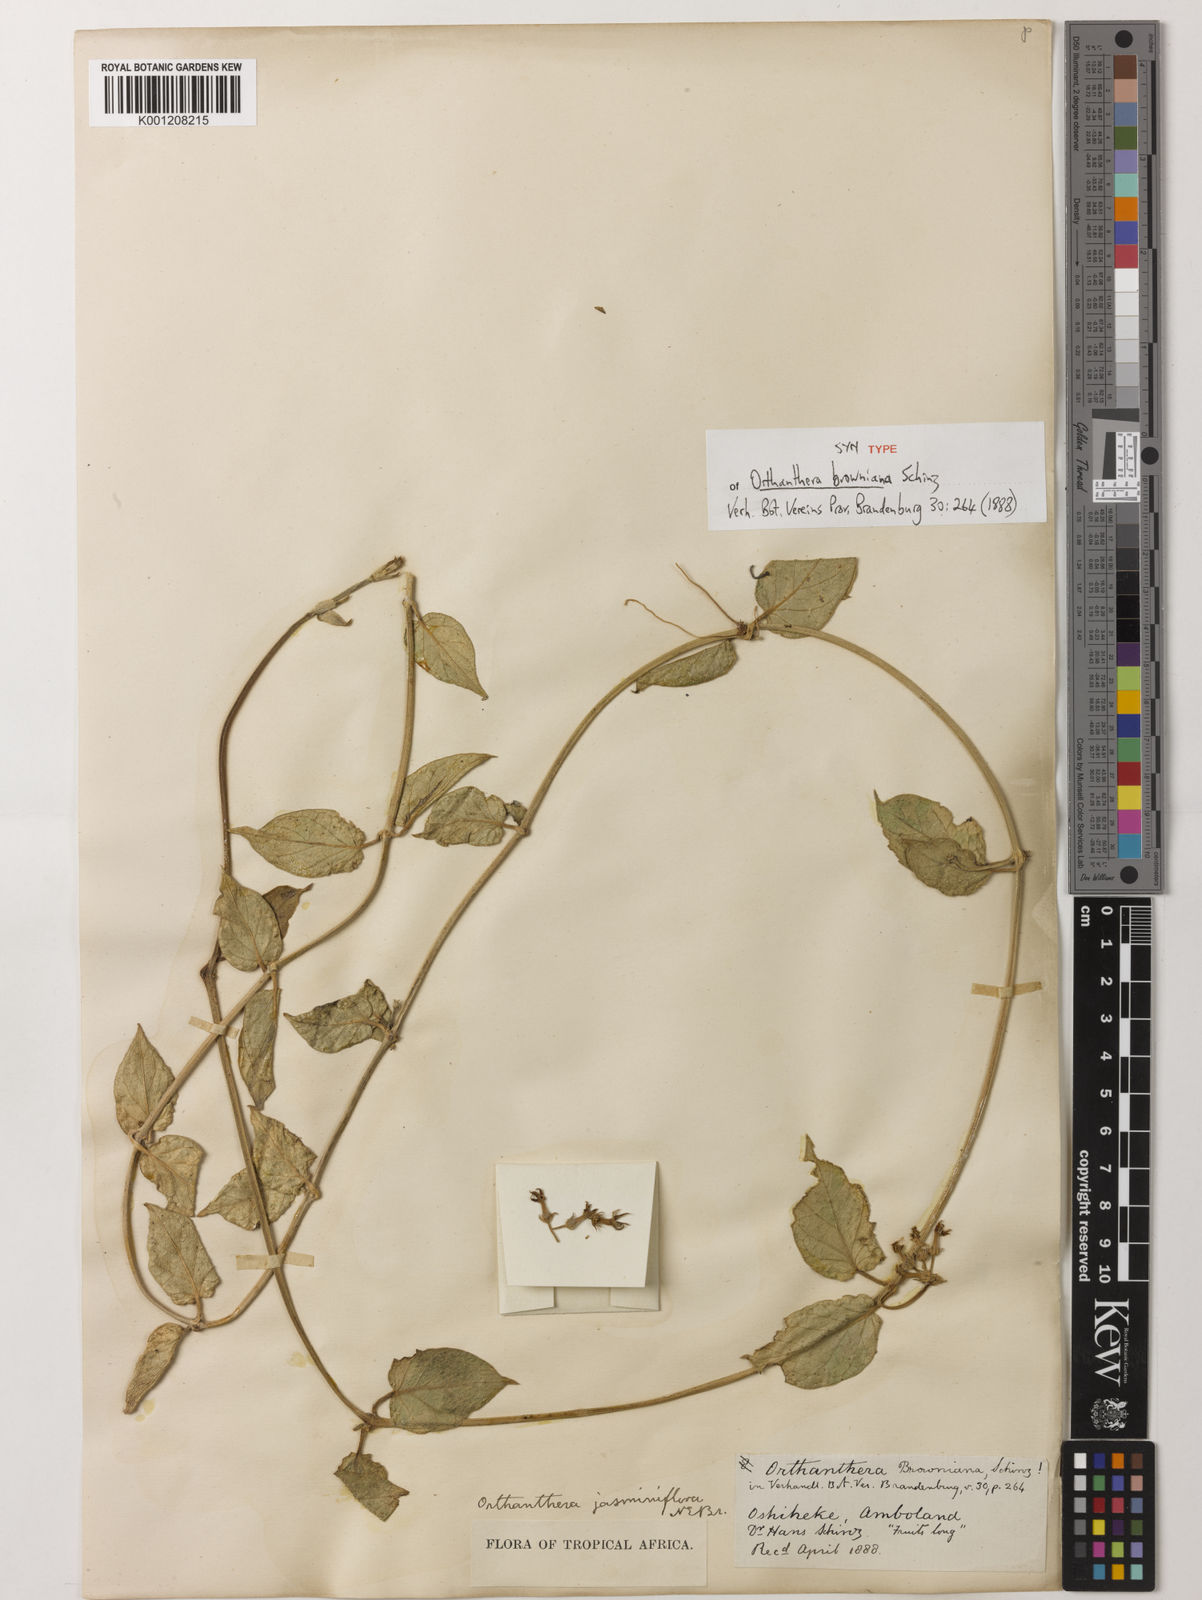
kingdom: Plantae
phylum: Tracheophyta
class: Magnoliopsida
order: Gentianales
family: Apocynaceae
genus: Orthanthera
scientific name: Orthanthera jasminiflora
